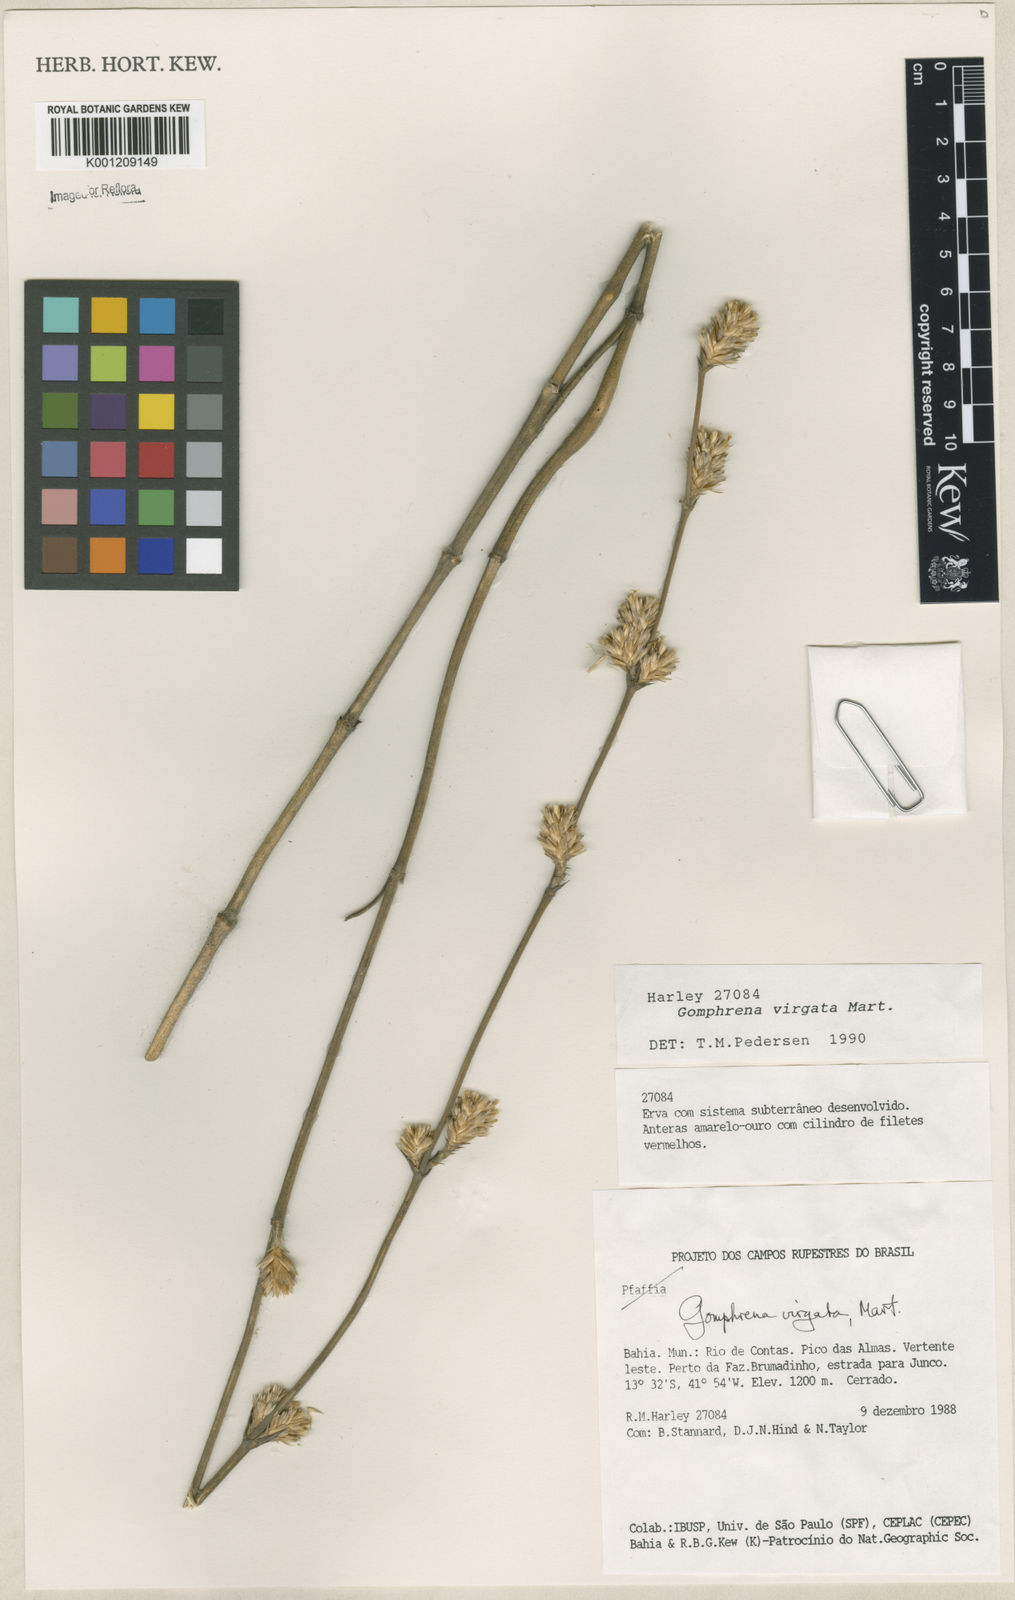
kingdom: Plantae
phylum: Tracheophyta
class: Magnoliopsida
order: Caryophyllales
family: Amaranthaceae
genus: Gomphrena
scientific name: Gomphrena virgata
